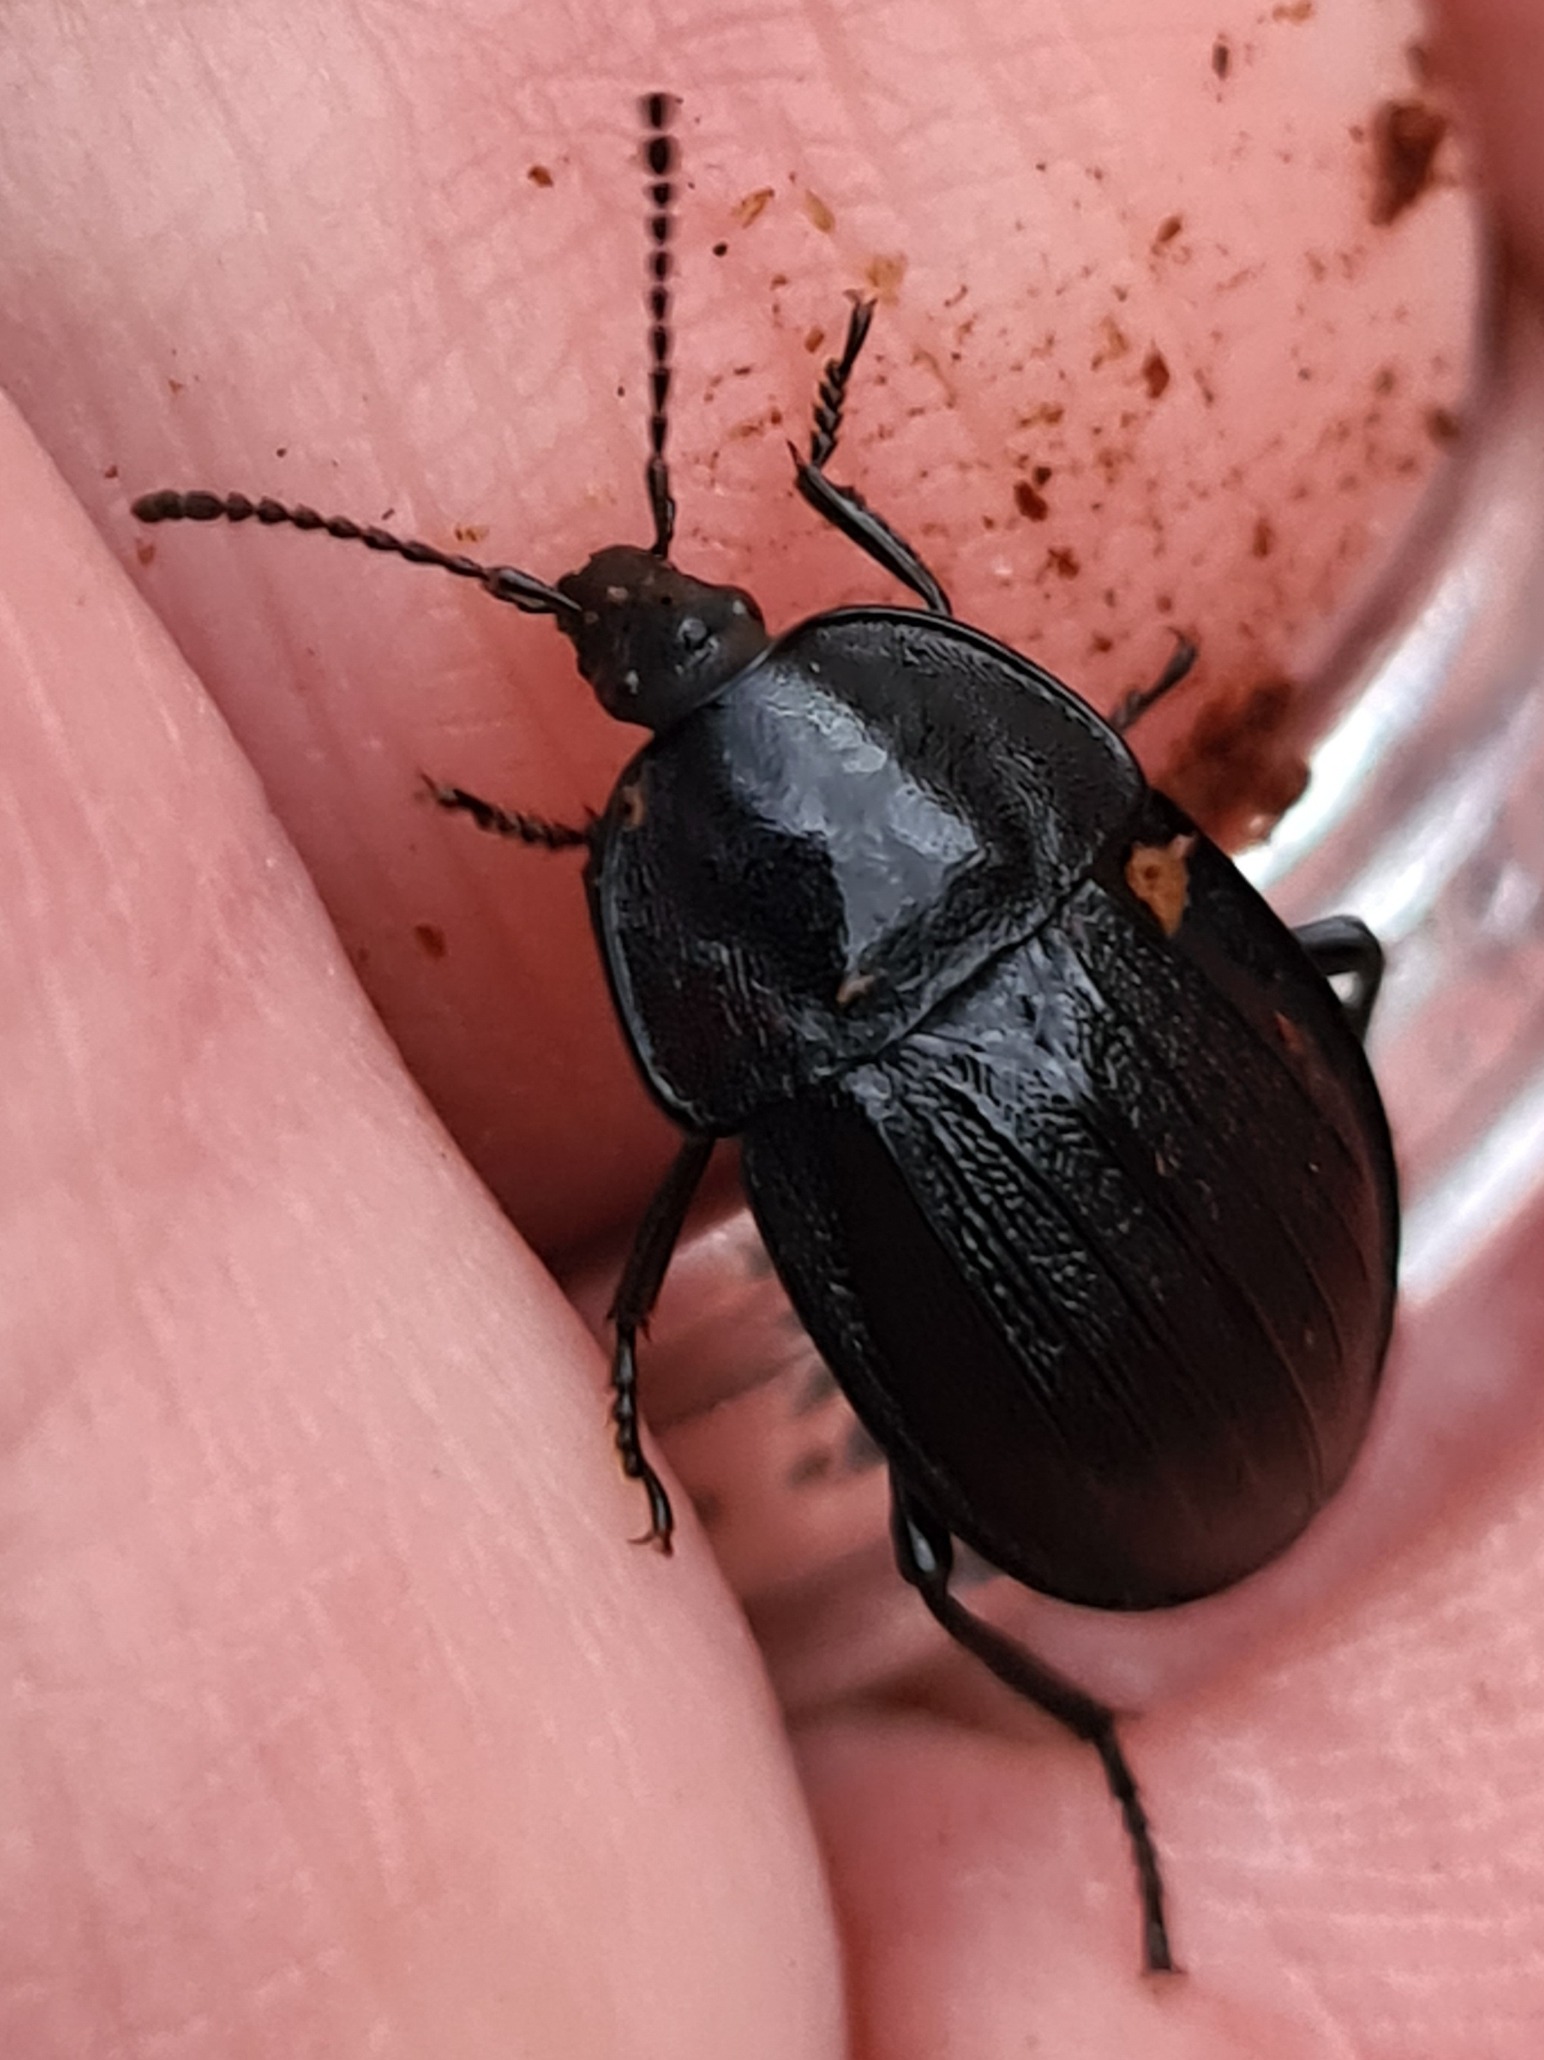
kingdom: Animalia
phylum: Arthropoda
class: Insecta
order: Coleoptera
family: Staphylinidae
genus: Silpha
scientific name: Silpha atrata
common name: Snegleådselbille
